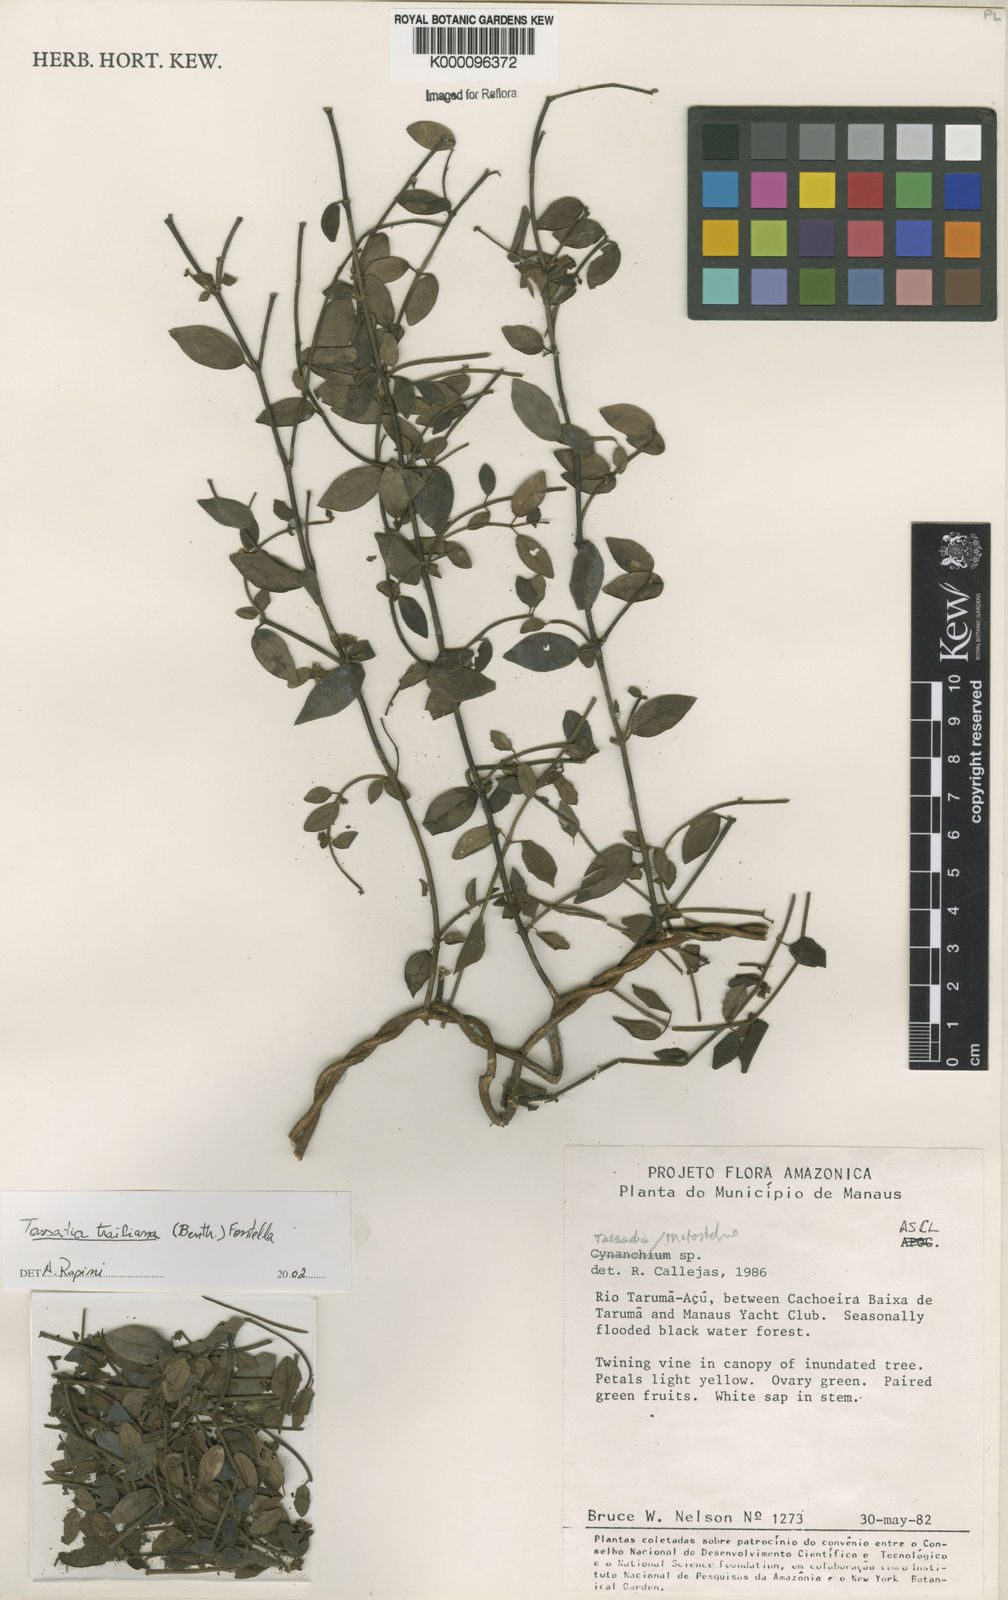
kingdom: Plantae
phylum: Tracheophyta
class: Magnoliopsida
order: Gentianales
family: Apocynaceae
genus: Tassadia
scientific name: Tassadia trailiana
